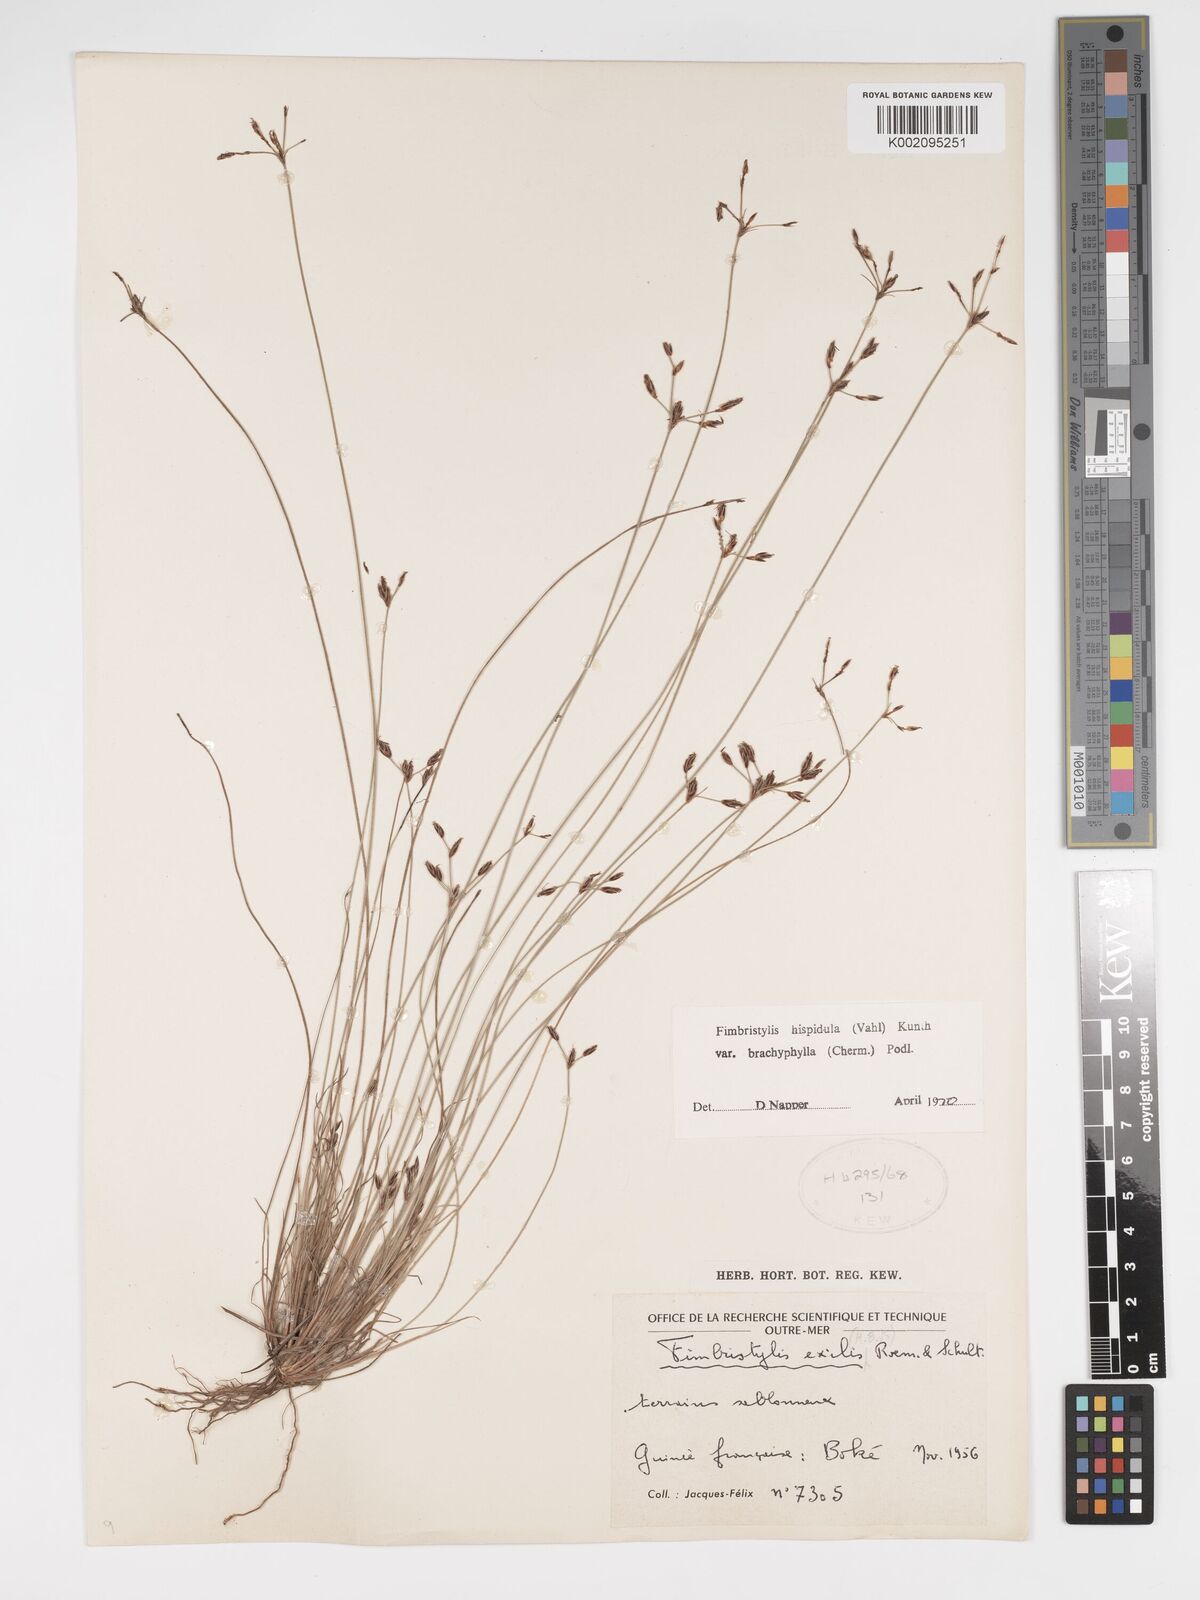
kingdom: Plantae
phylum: Tracheophyta
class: Liliopsida
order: Poales
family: Cyperaceae
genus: Bulbostylis
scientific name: Bulbostylis hispidula
